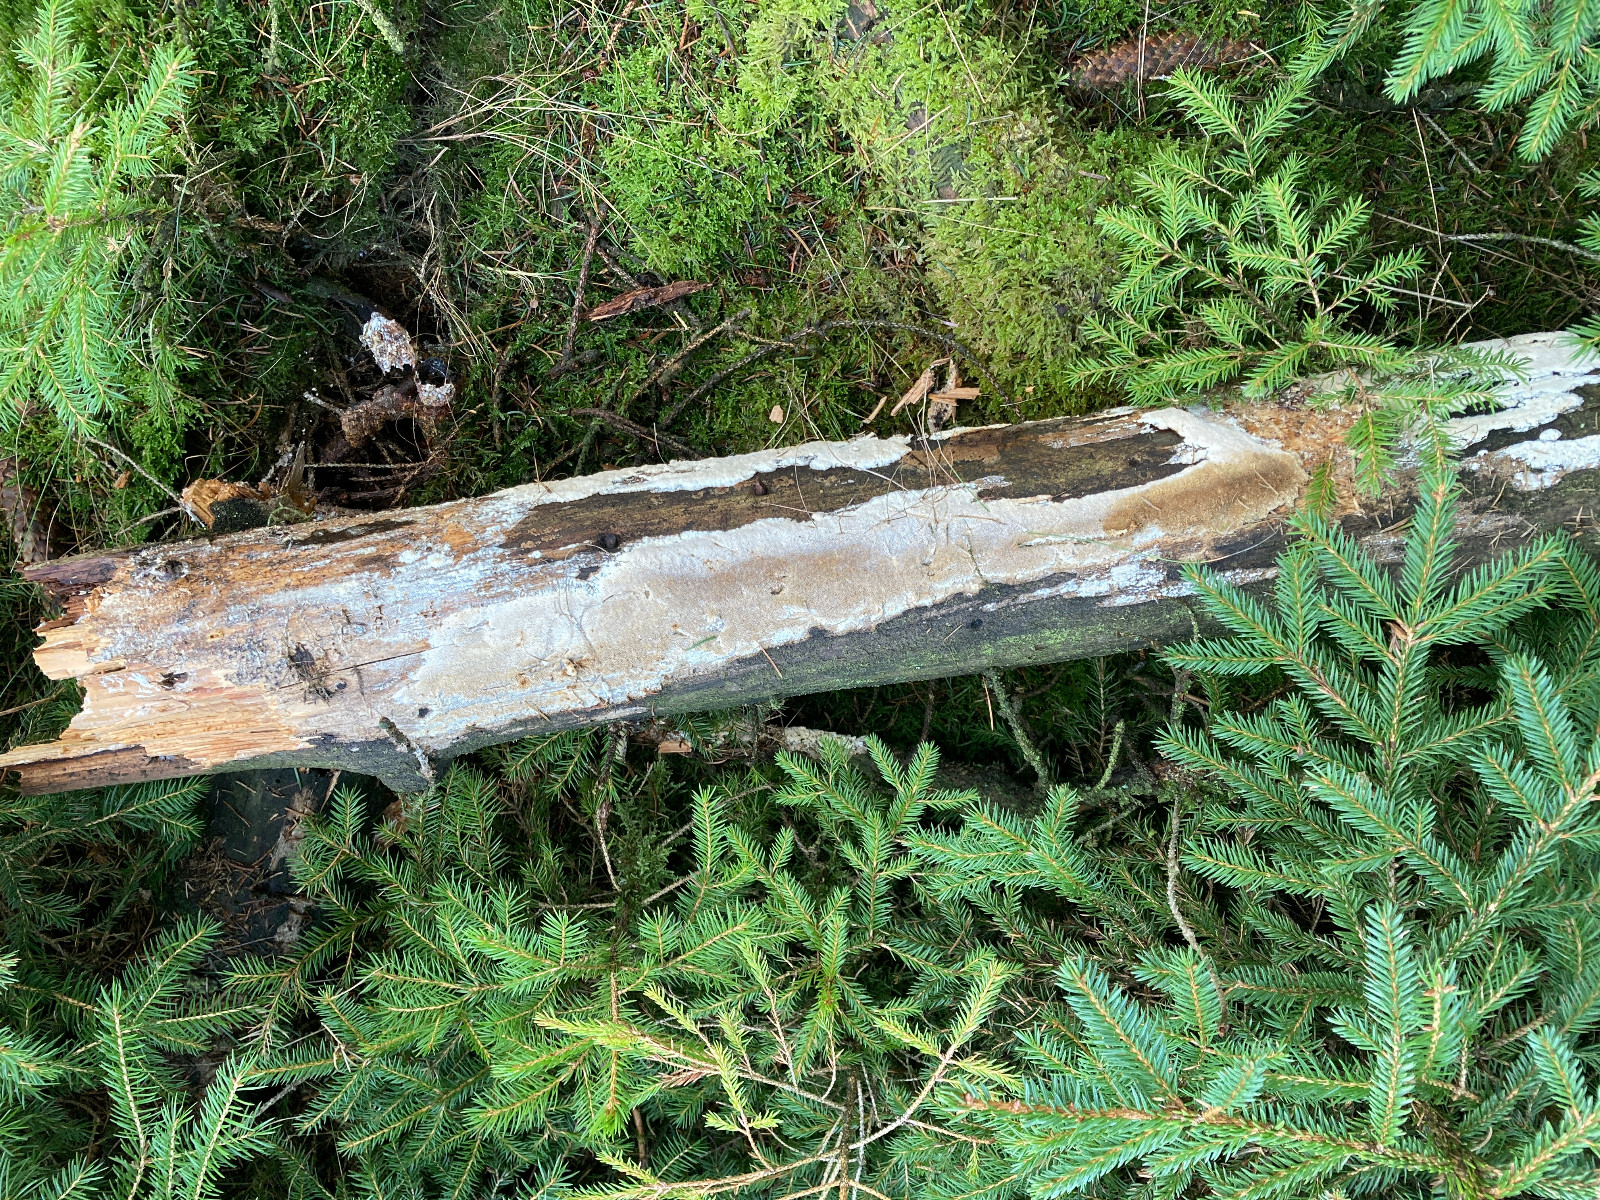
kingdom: Fungi
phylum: Basidiomycota
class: Agaricomycetes
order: Polyporales
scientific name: Polyporales
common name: poresvampordenen
